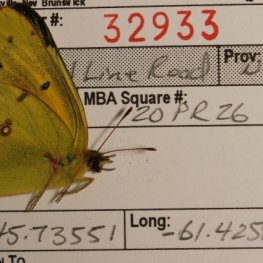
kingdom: Animalia
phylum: Arthropoda
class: Insecta
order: Lepidoptera
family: Pieridae
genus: Colias
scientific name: Colias eurytheme
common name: Orange Sulphur
